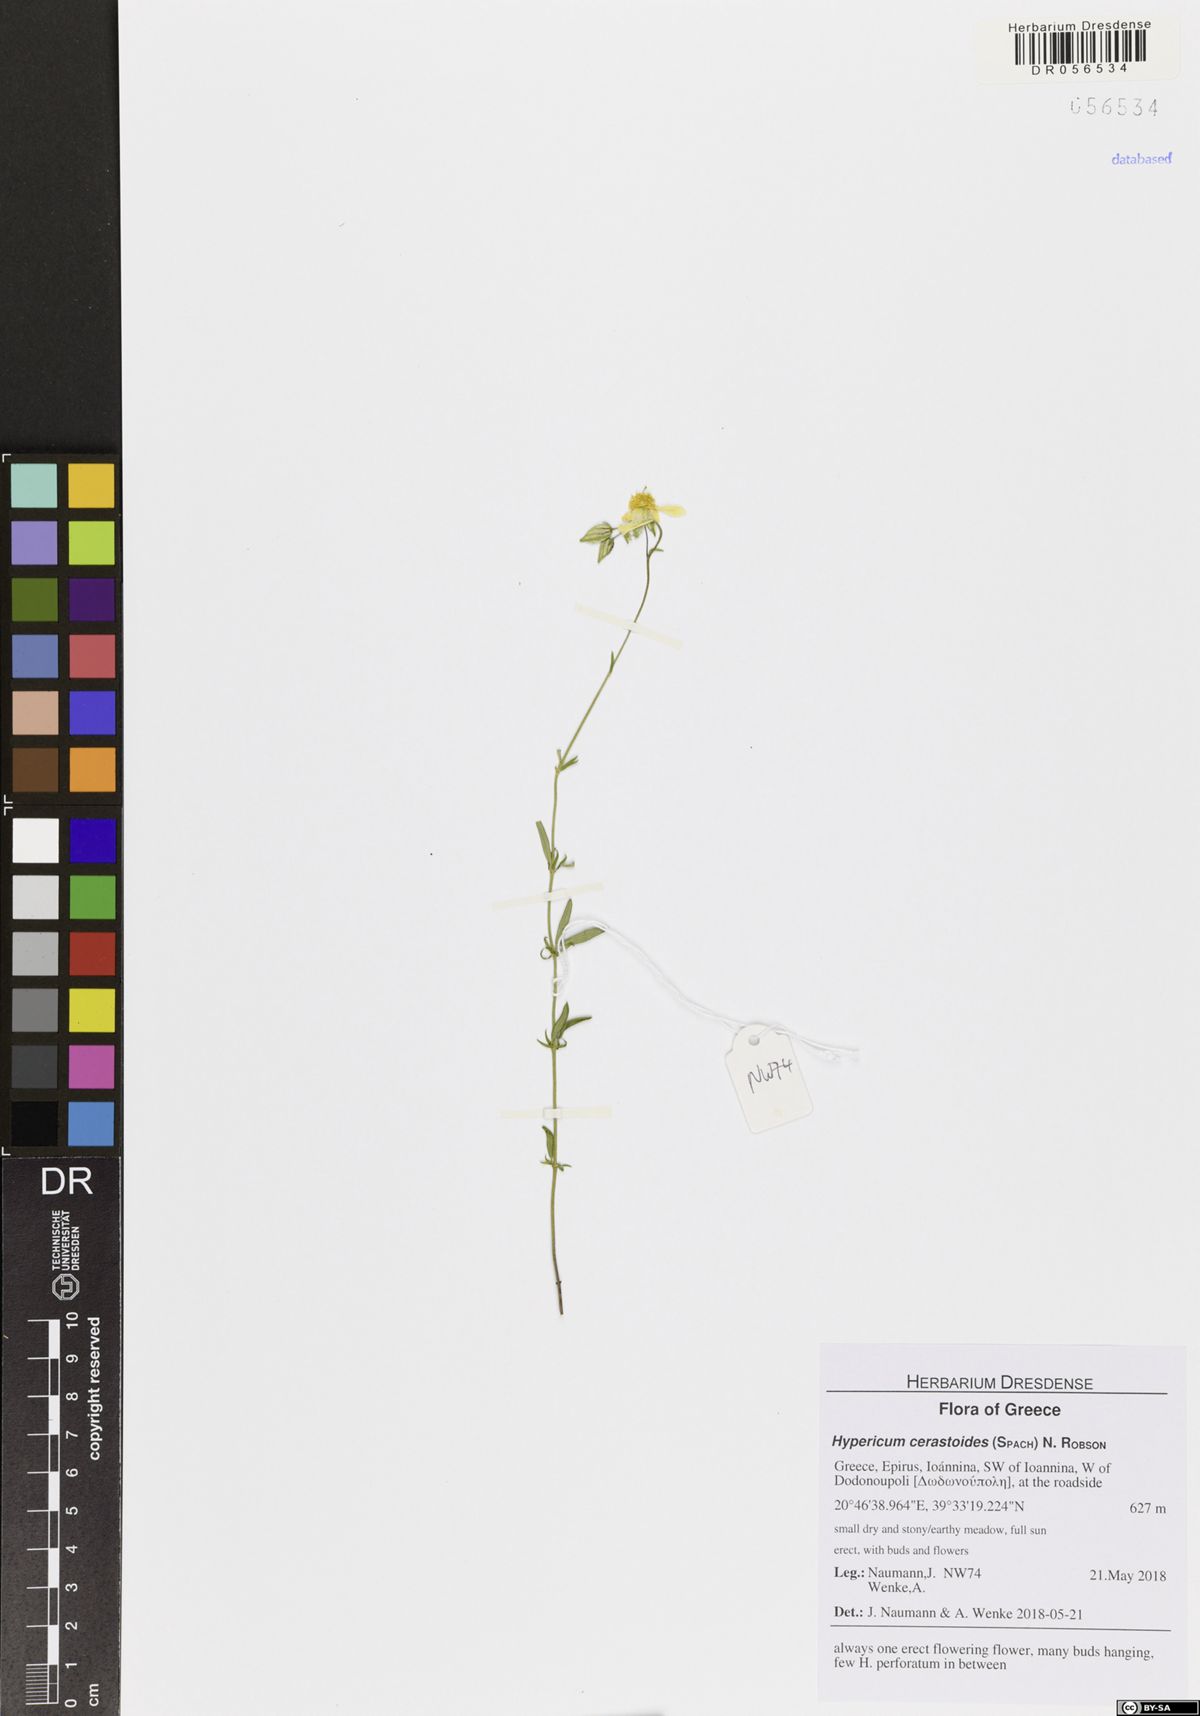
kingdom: Plantae
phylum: Tracheophyta
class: Magnoliopsida
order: Malpighiales
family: Hypericaceae
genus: Hypericum
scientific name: Hypericum cerastoides
